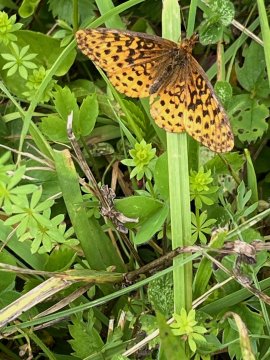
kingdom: Animalia
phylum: Arthropoda
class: Insecta
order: Lepidoptera
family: Nymphalidae
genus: Clossiana
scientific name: Clossiana toddi
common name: Meadow Fritillary
